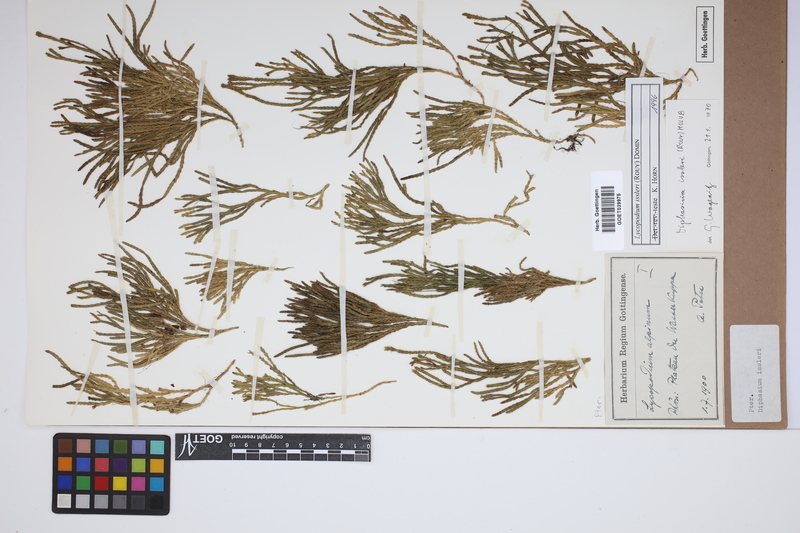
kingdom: Plantae
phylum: Tracheophyta
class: Lycopodiopsida
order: Lycopodiales
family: Lycopodiaceae
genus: Diphasiastrum
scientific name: Diphasiastrum issleri
